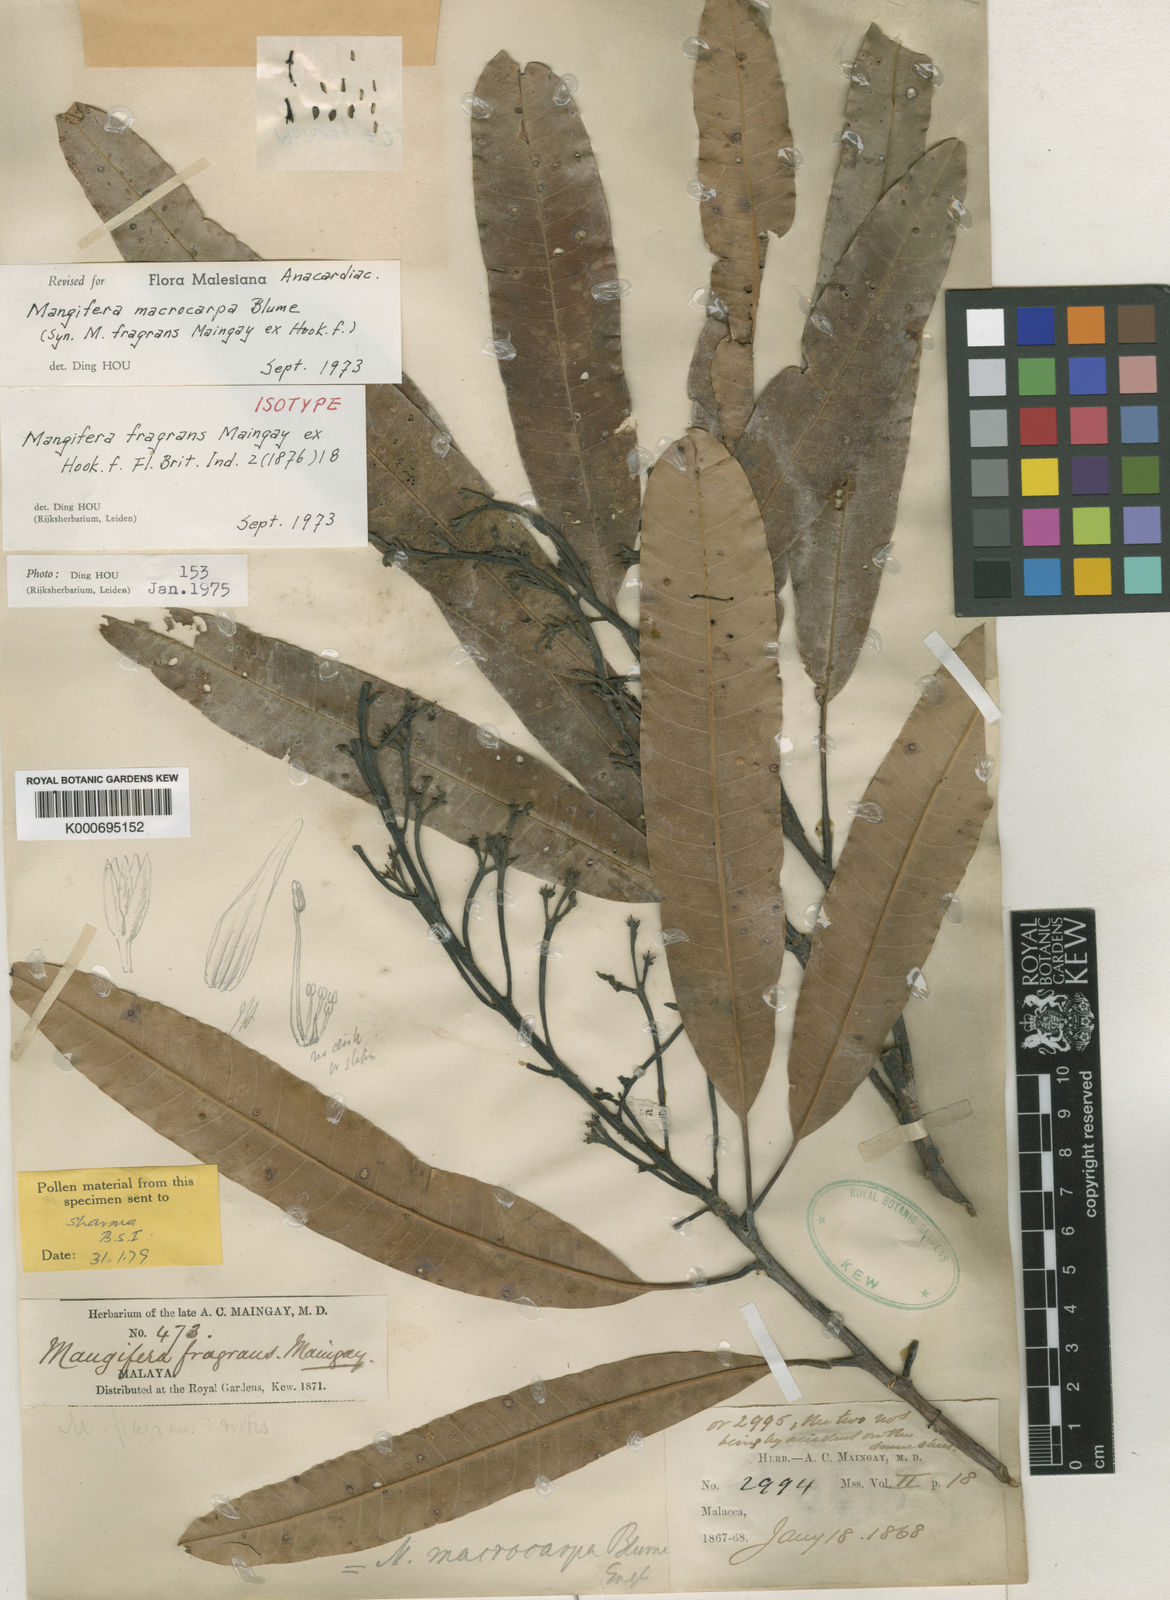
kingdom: Plantae
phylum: Tracheophyta
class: Magnoliopsida
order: Sapindales
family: Anacardiaceae
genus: Mangifera
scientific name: Mangifera macrocarpa
